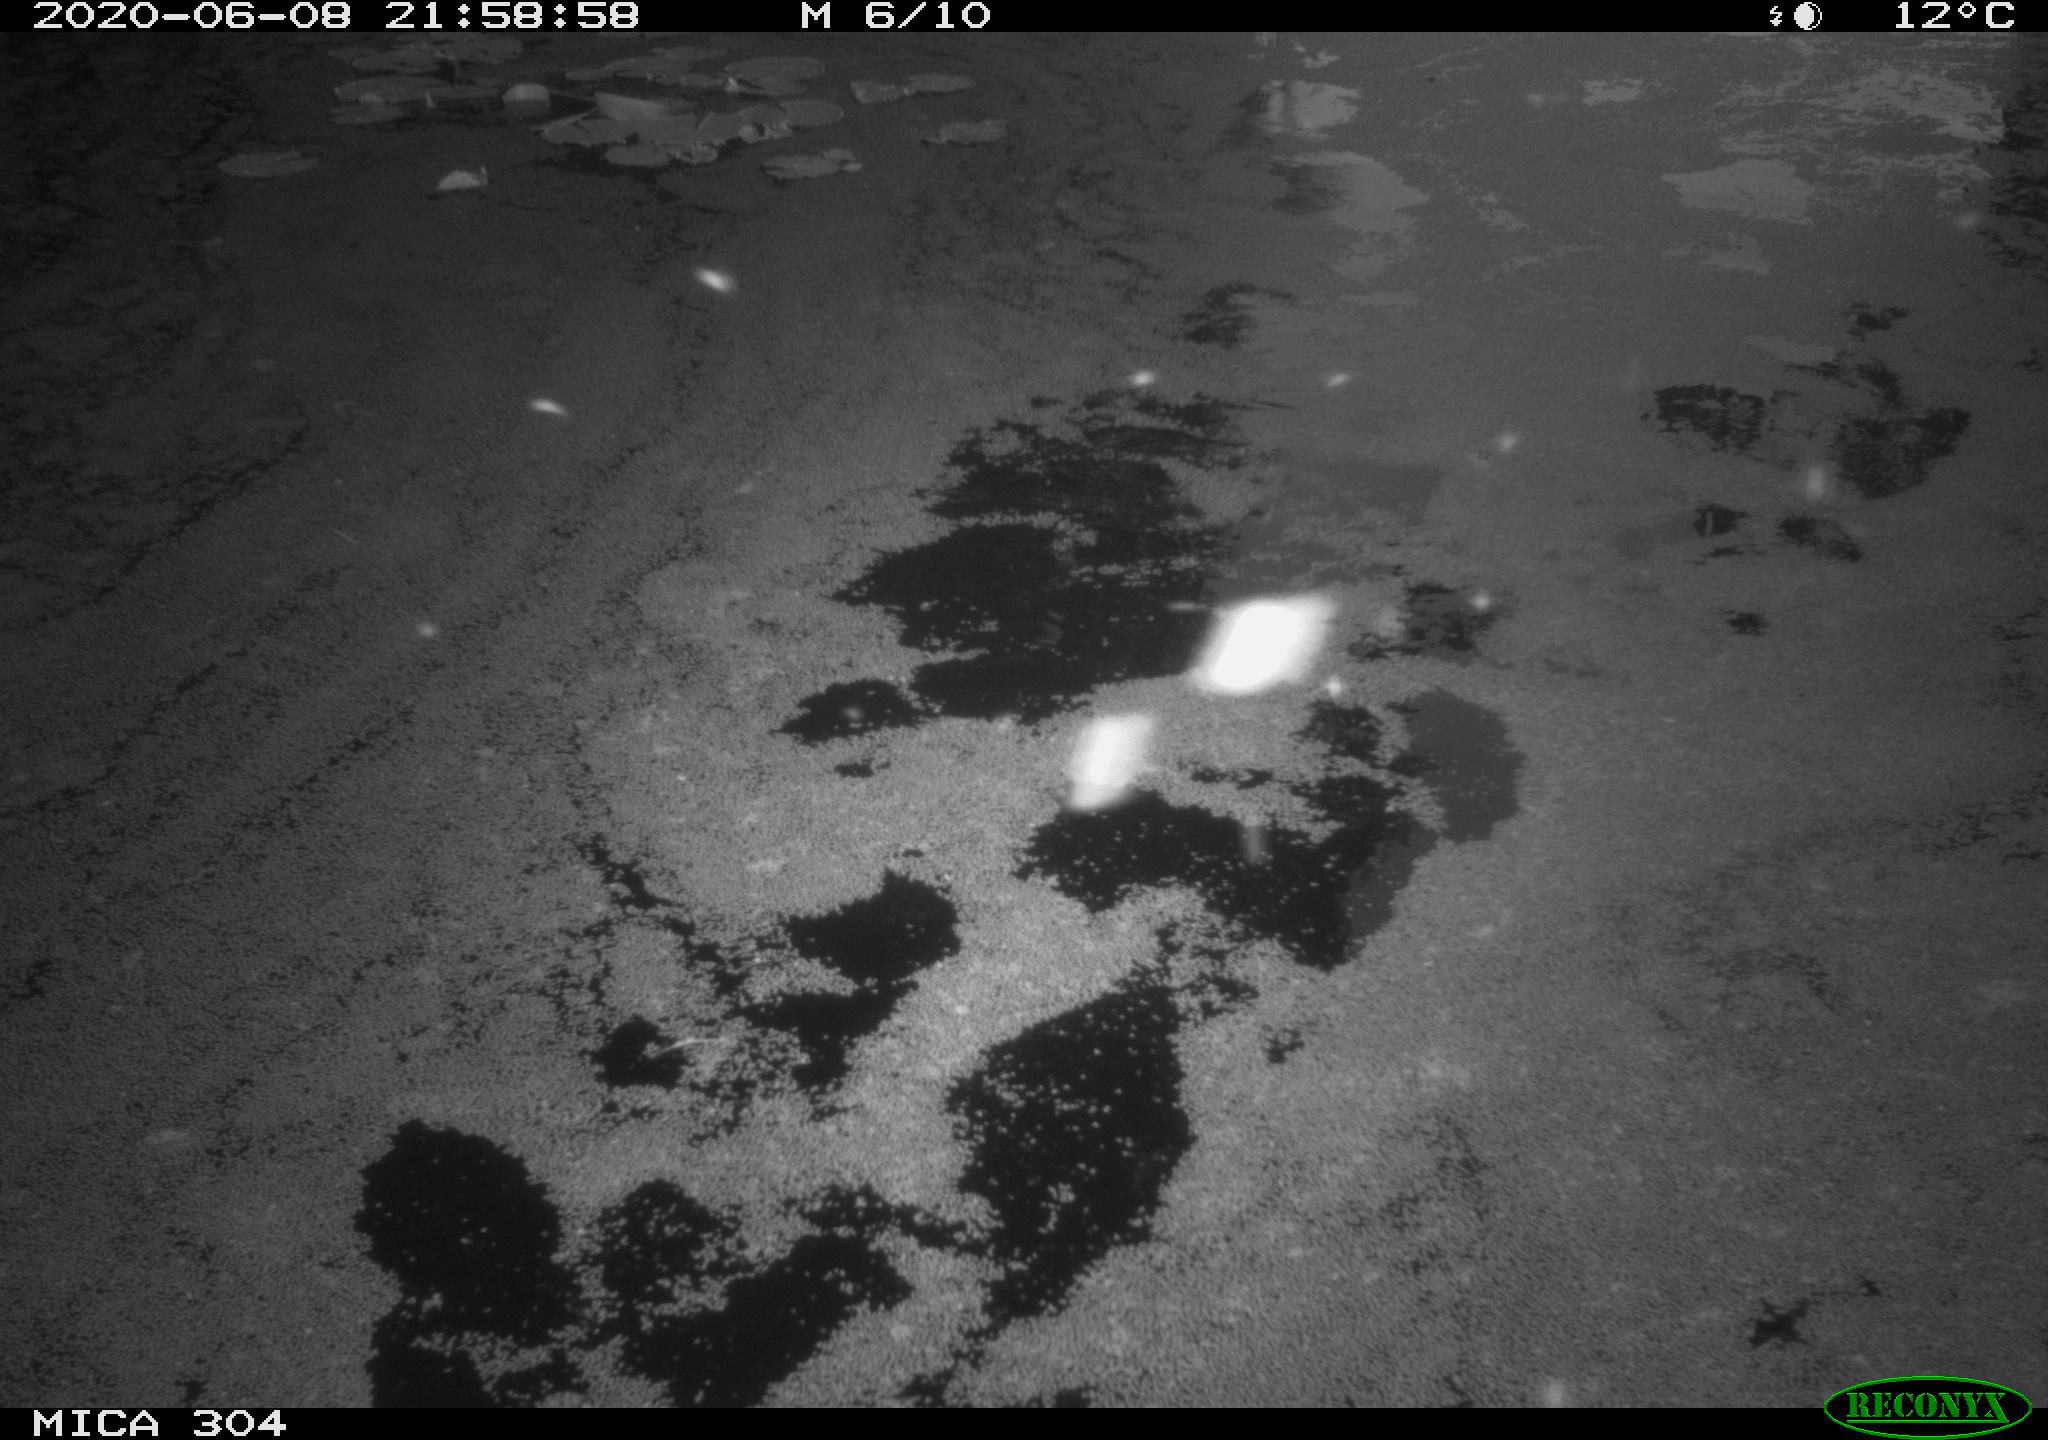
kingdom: Animalia
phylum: Chordata
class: Aves
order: Anseriformes
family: Anatidae
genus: Anas
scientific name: Anas platyrhynchos
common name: Mallard
